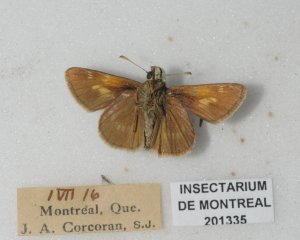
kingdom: Animalia
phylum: Arthropoda
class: Insecta
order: Lepidoptera
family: Hesperiidae
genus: Polites
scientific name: Polites themistocles
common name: Tawny-edged Skipper
